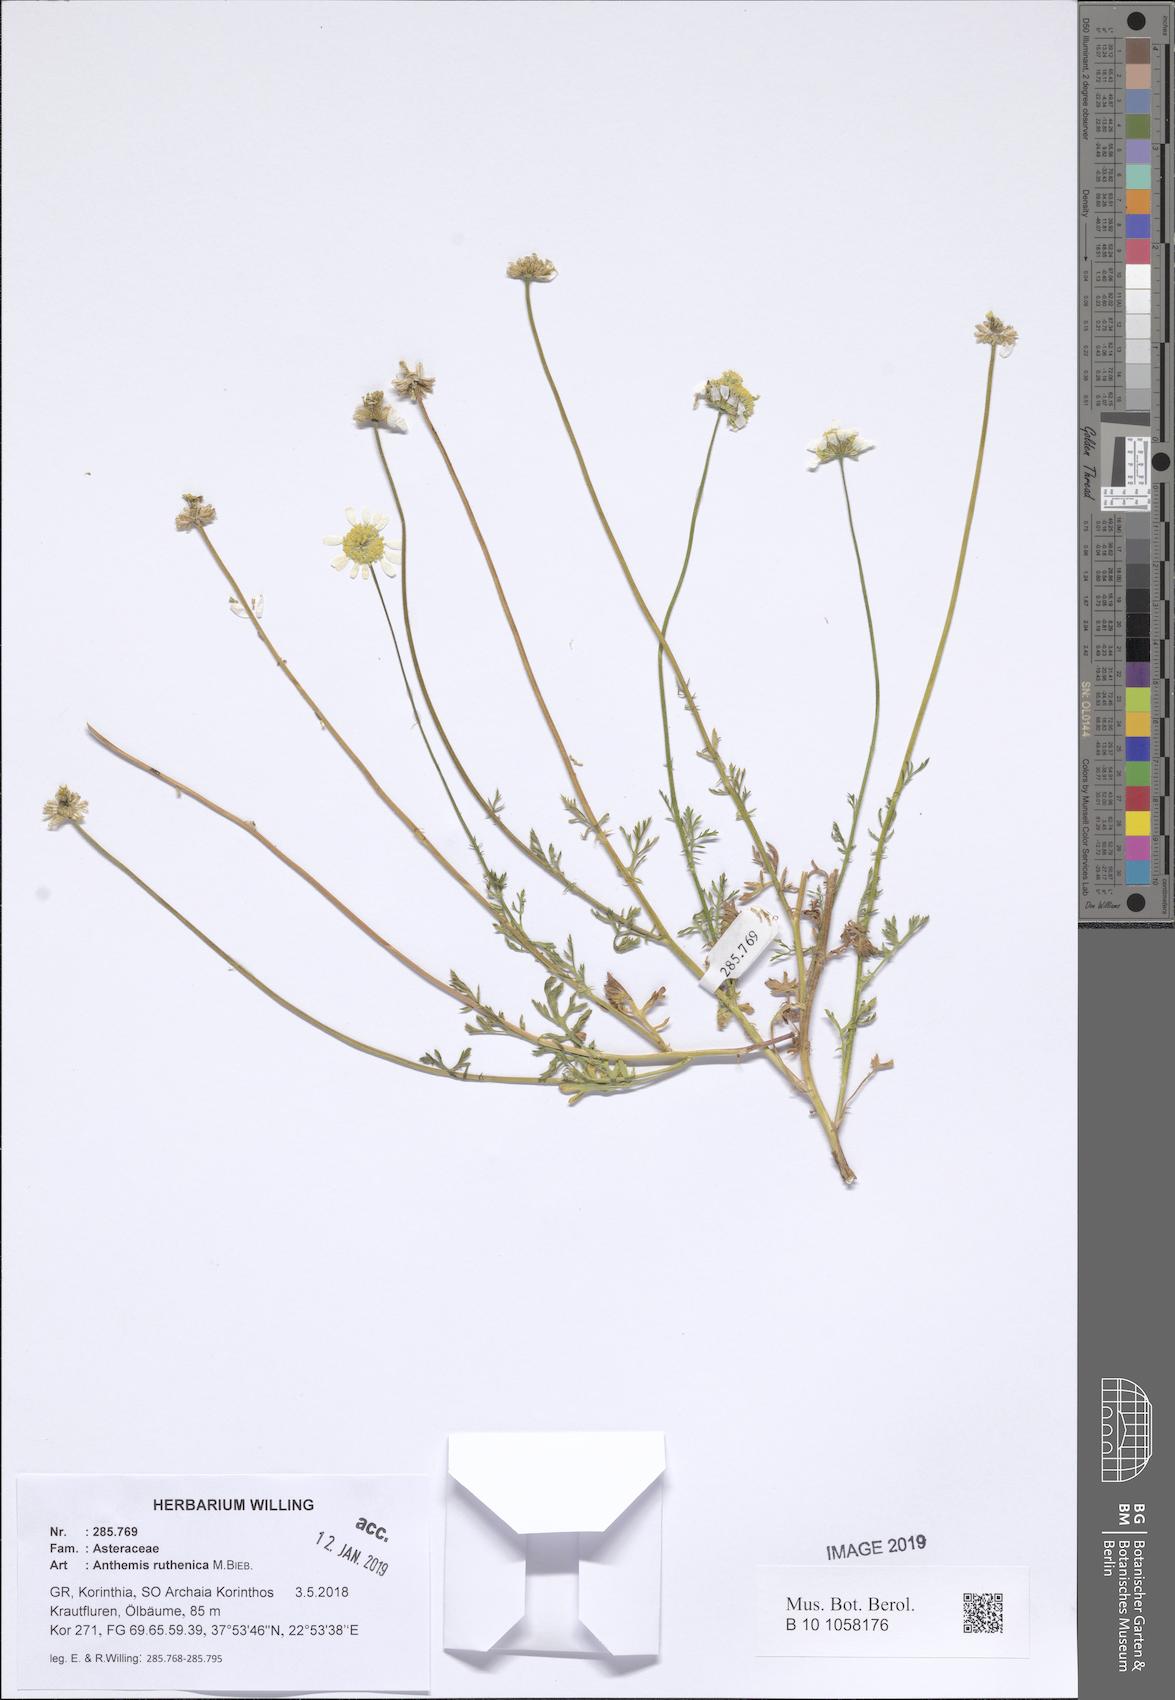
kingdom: Plantae
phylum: Tracheophyta
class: Magnoliopsida
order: Asterales
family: Asteraceae
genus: Anthemis
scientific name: Anthemis ruthenica
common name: Eastern chamomile
